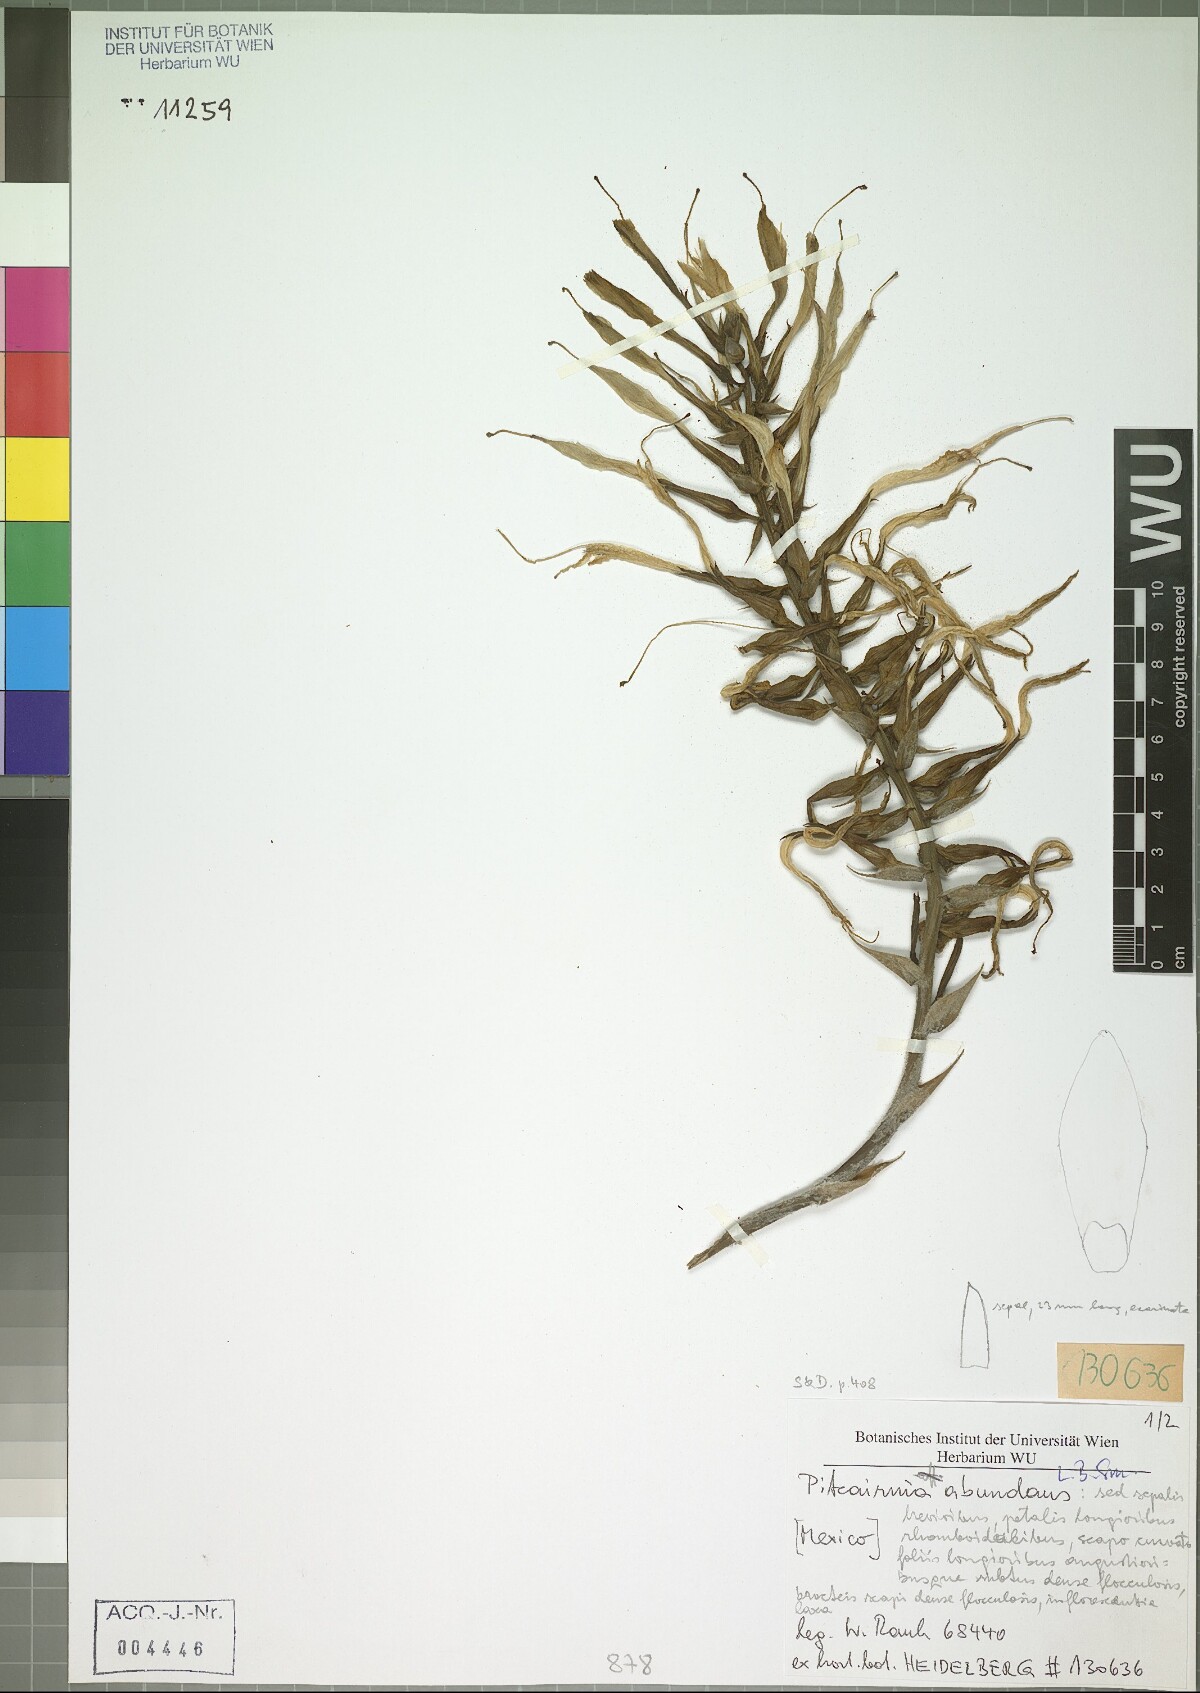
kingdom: Plantae
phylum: Tracheophyta
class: Liliopsida
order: Poales
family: Bromeliaceae
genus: Pitcairnia
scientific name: Pitcairnia abundans
